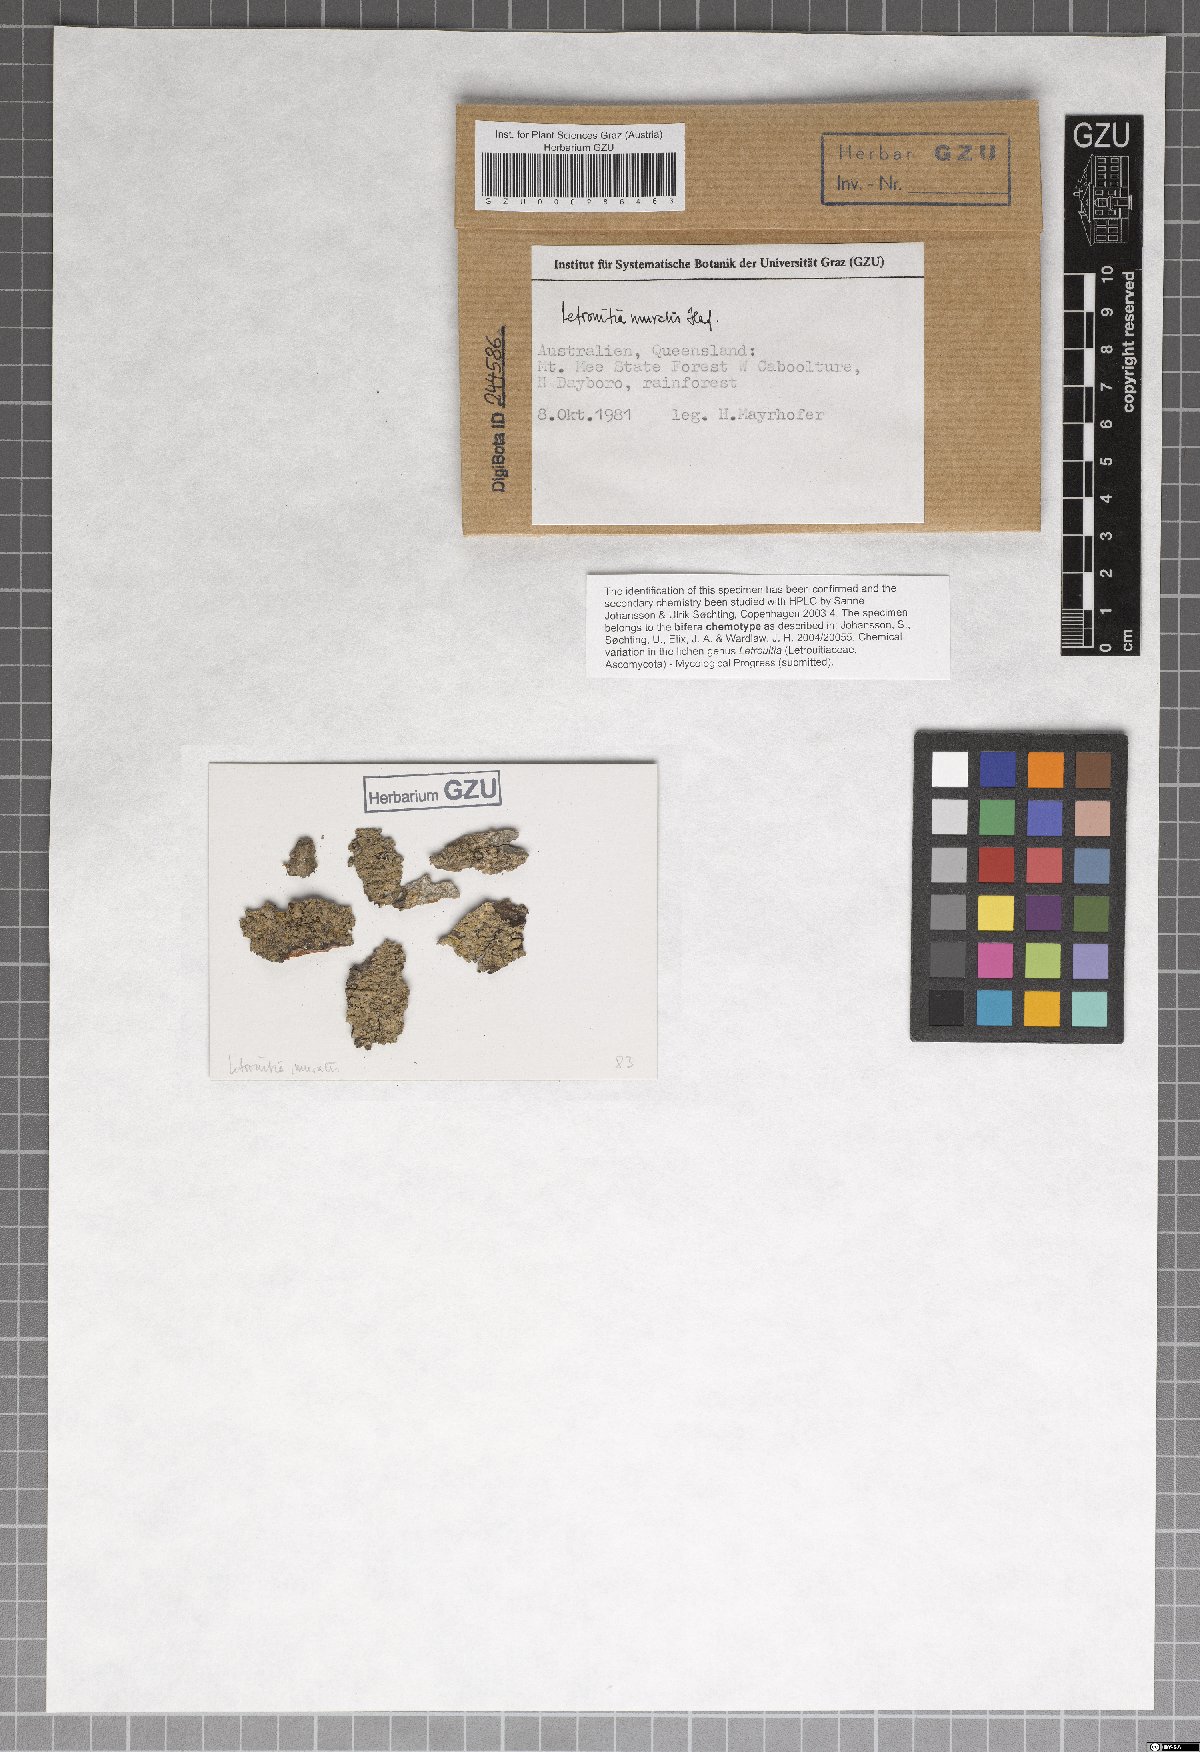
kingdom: Fungi
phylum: Ascomycota
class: Lecanoromycetes
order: Teloschistales
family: Letrouitiaceae
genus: Letrouitia
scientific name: Letrouitia muralis
